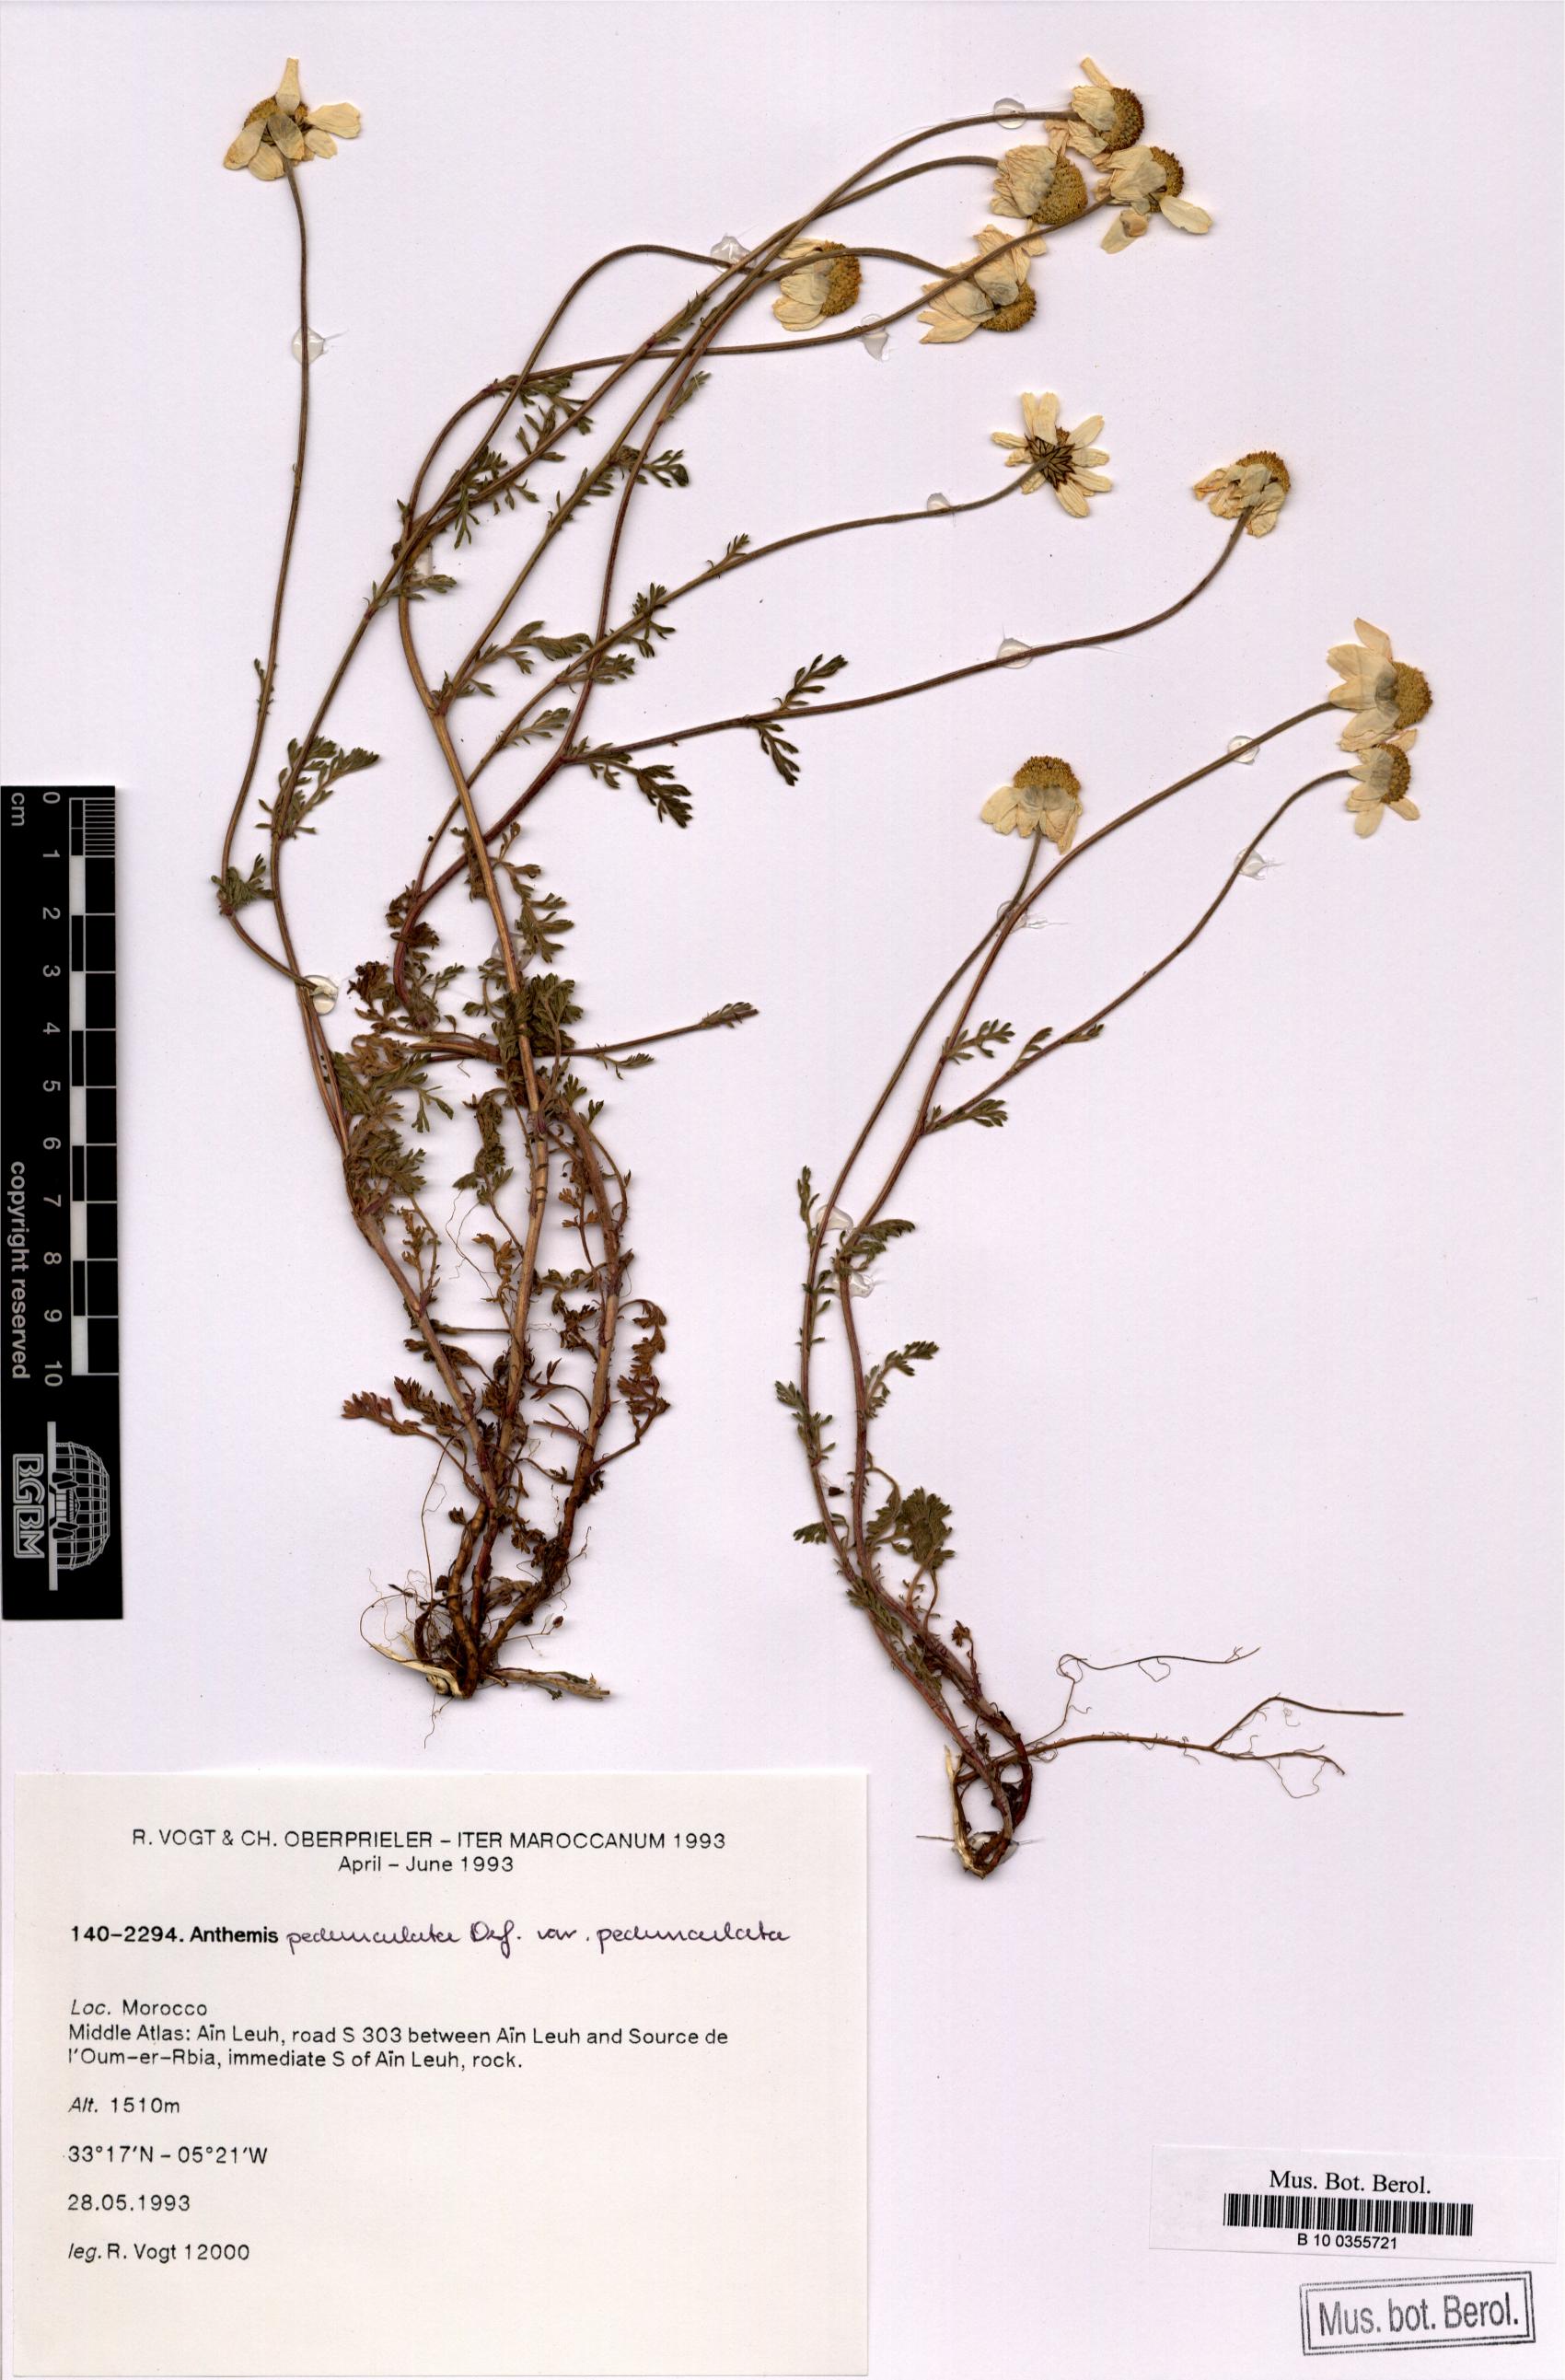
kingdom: Plantae
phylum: Tracheophyta
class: Magnoliopsida
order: Asterales
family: Asteraceae
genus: Anthemis
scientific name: Anthemis pedunculata
